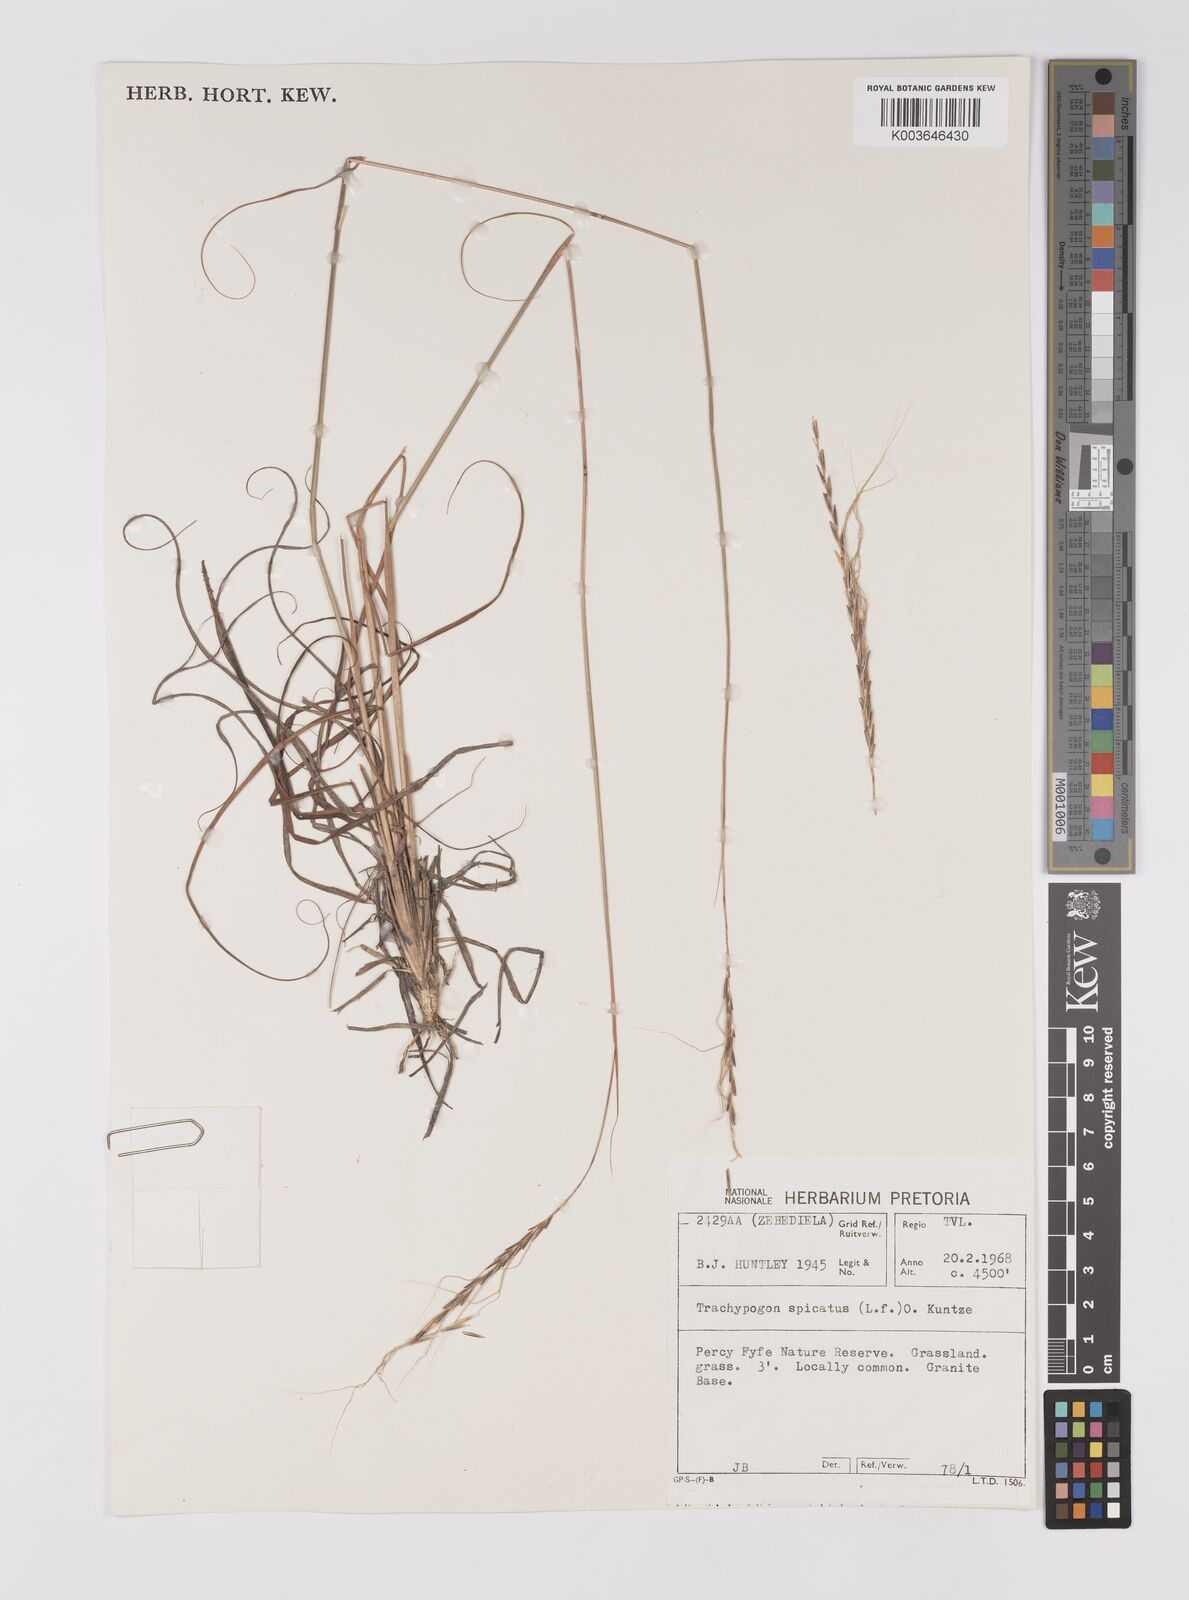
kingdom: Plantae
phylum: Tracheophyta
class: Liliopsida
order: Poales
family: Poaceae
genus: Trachypogon
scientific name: Trachypogon spicatus
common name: Crinkle-awn
